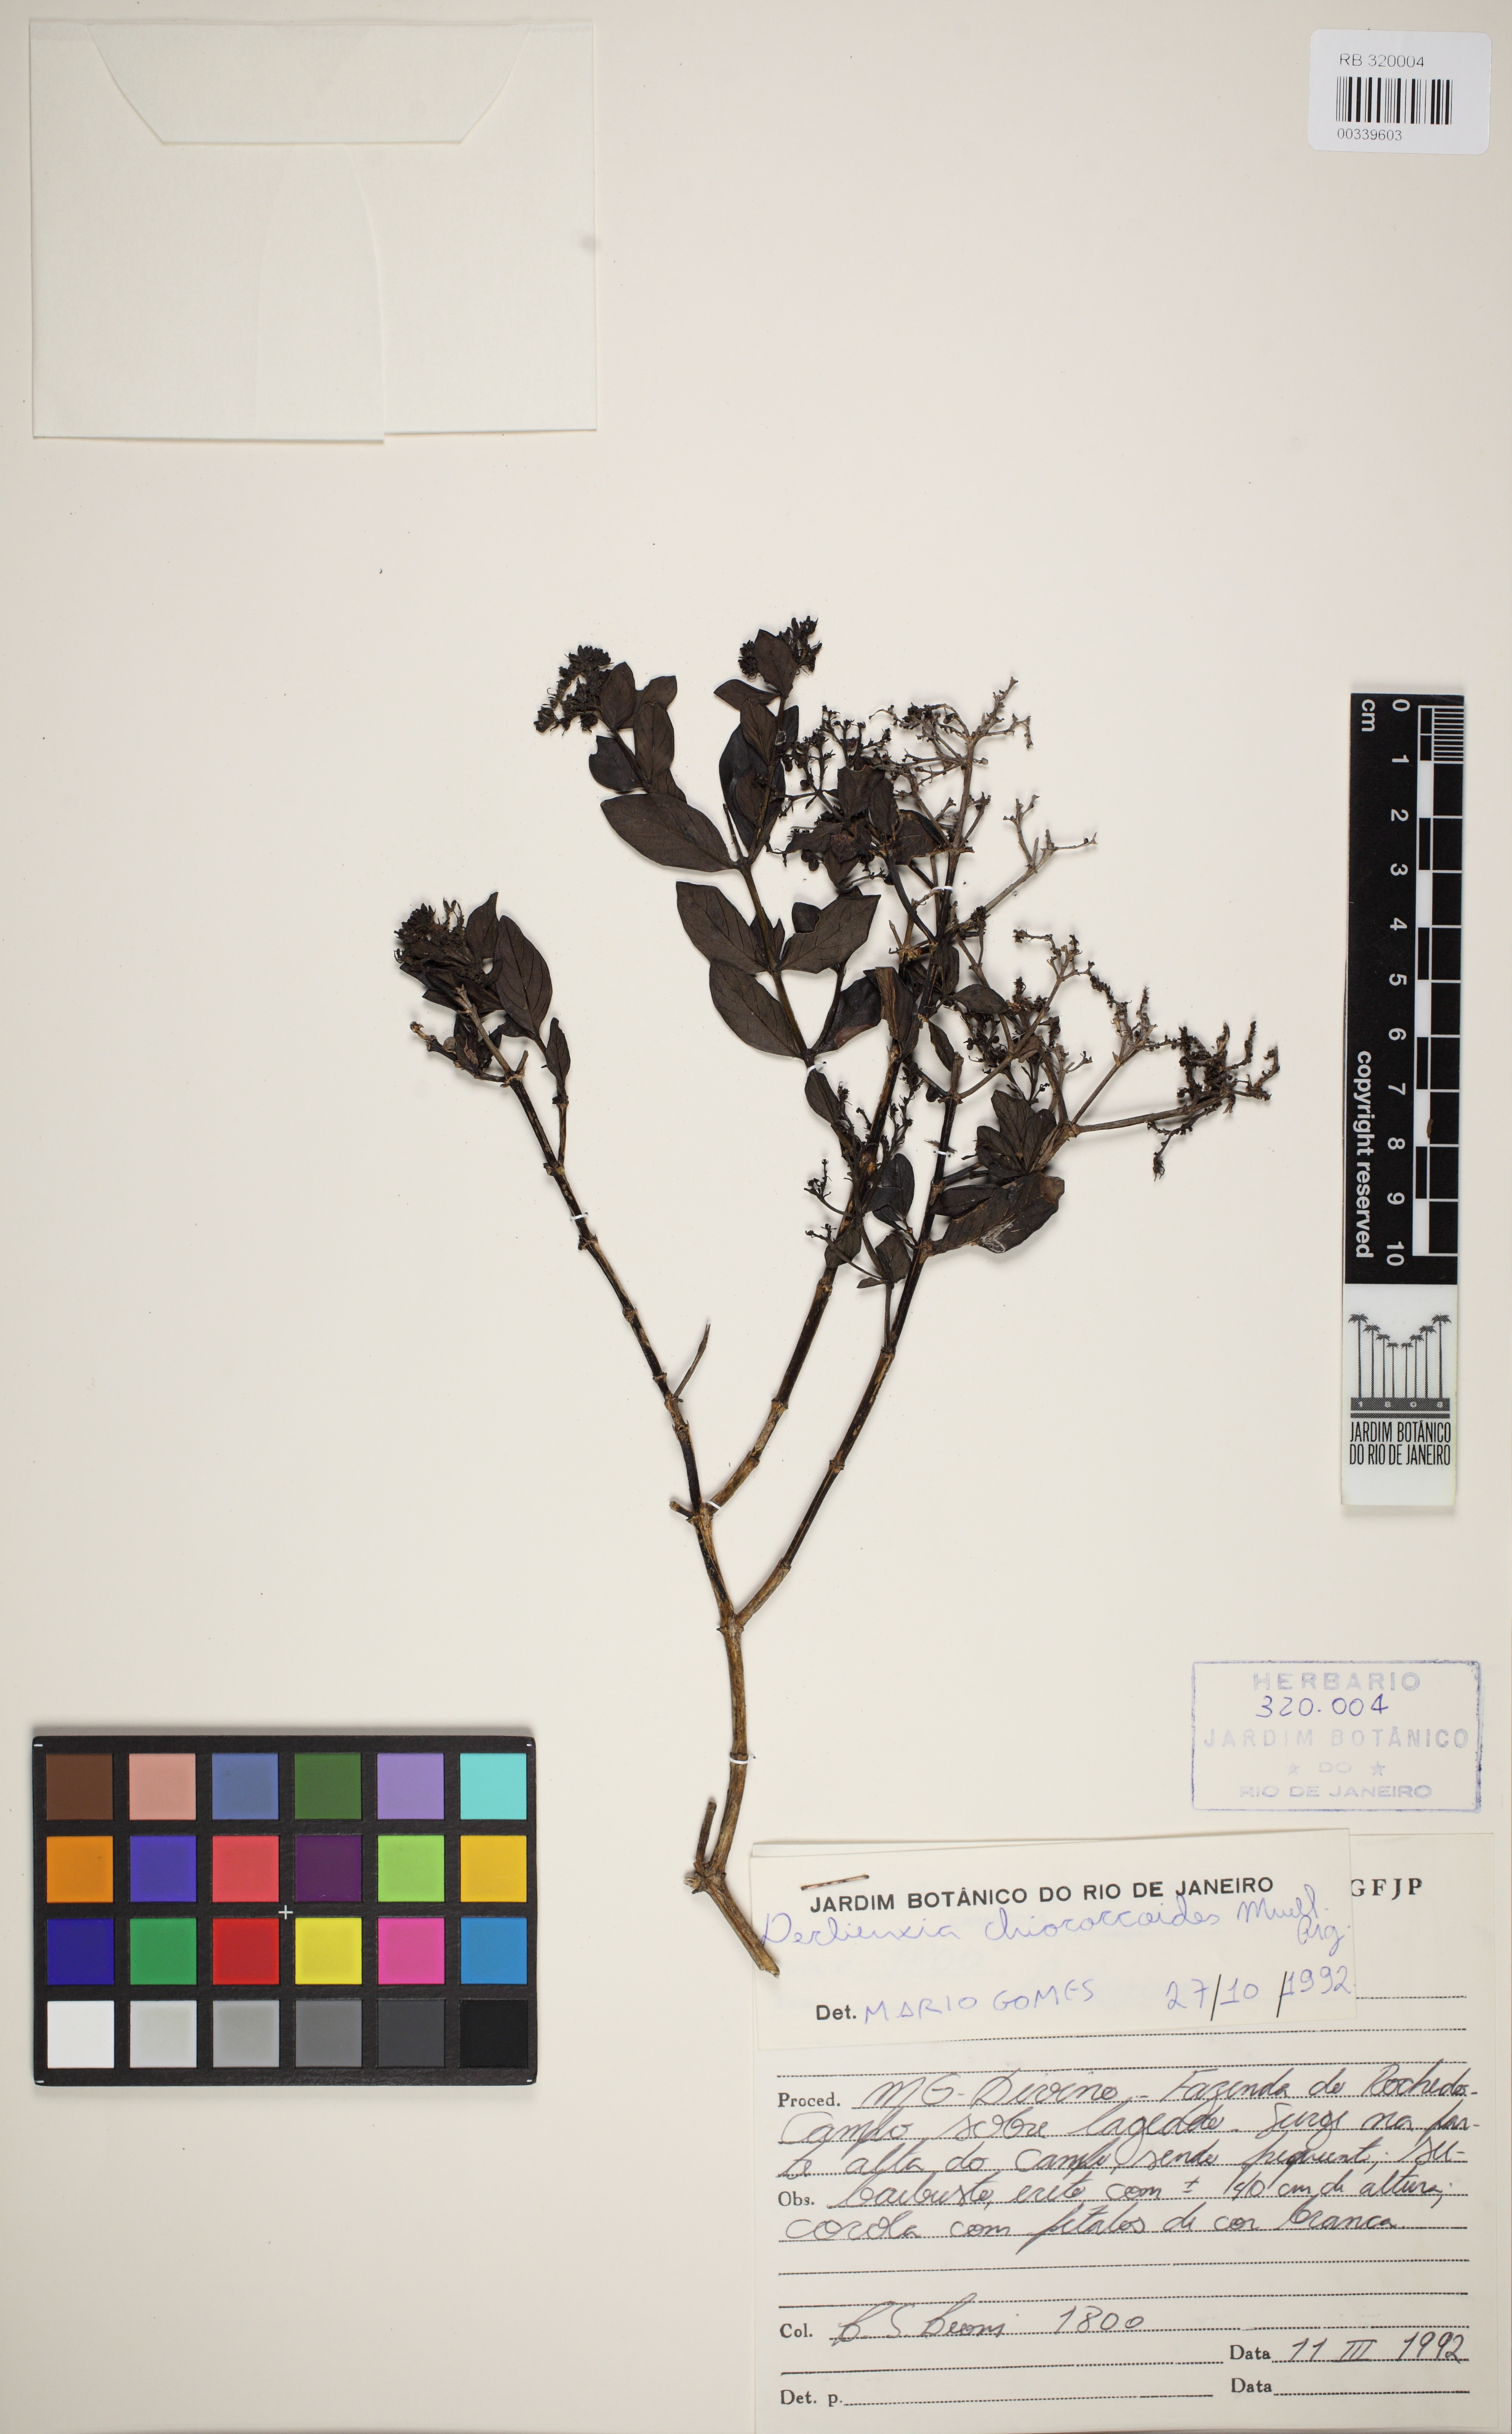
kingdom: Plantae
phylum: Tracheophyta
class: Magnoliopsida
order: Gentianales
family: Rubiaceae
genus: Declieuxia
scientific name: Declieuxia fruticosa
